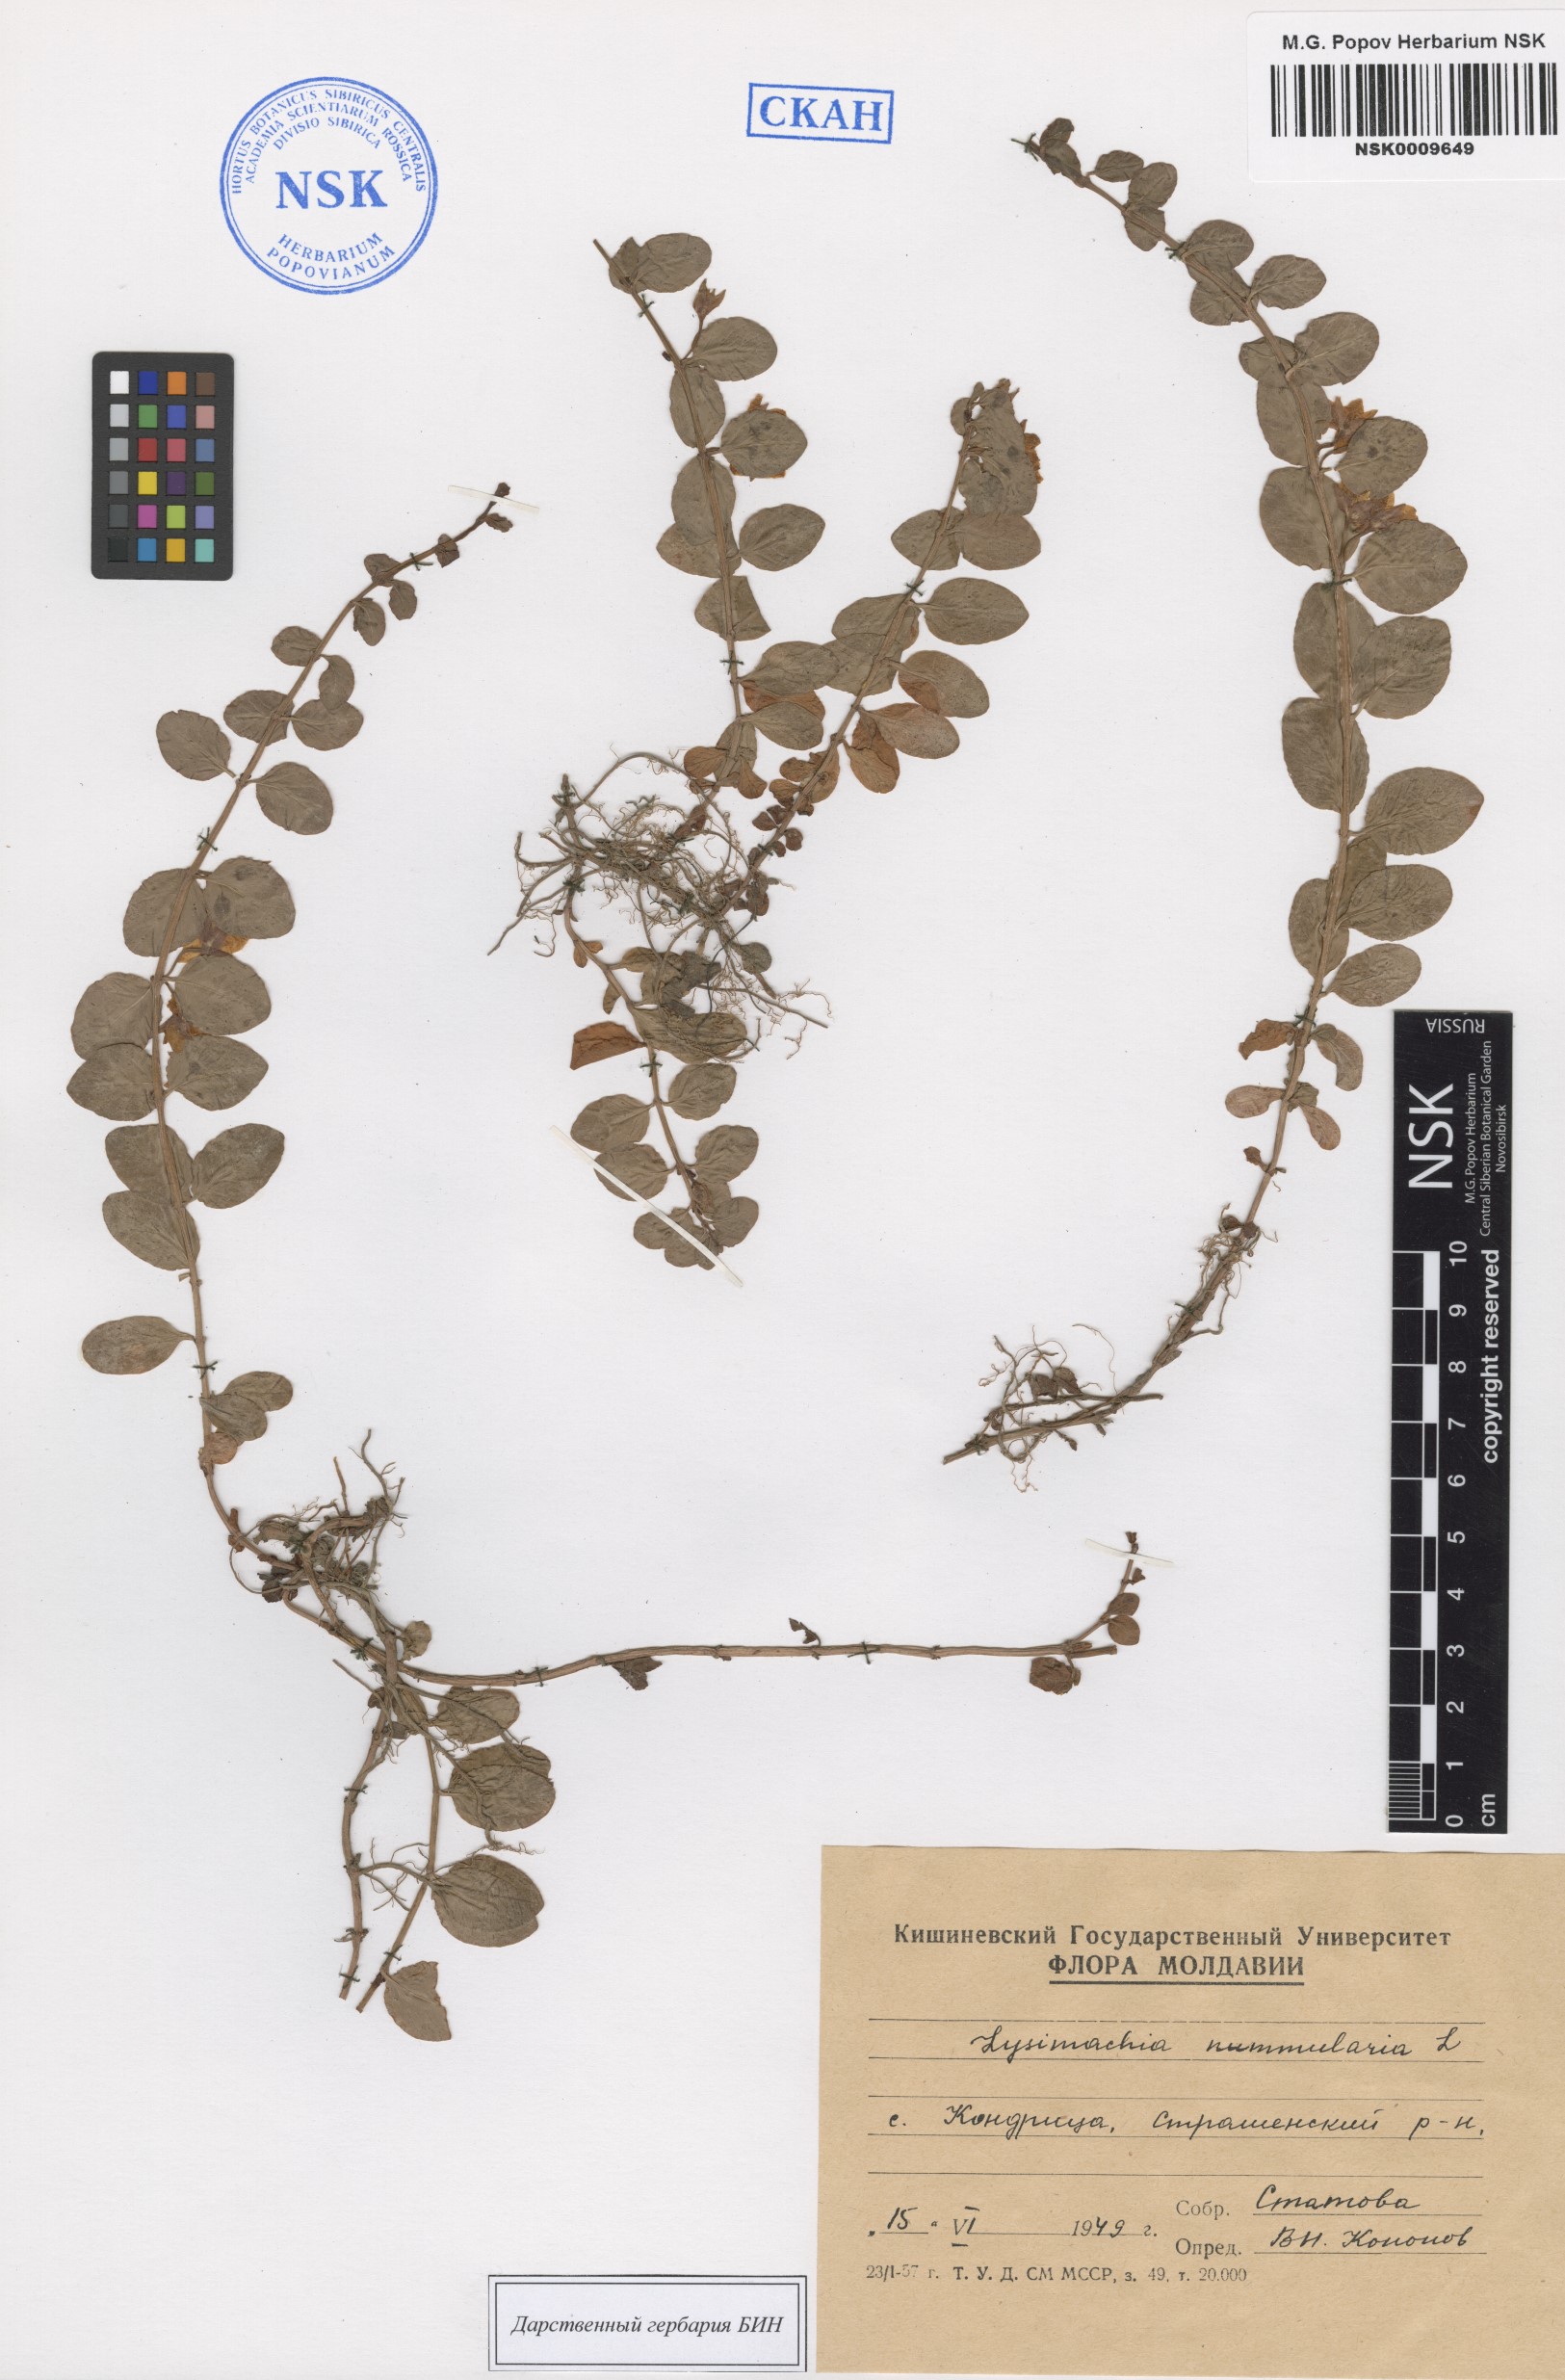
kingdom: Plantae
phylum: Tracheophyta
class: Magnoliopsida
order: Ericales
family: Primulaceae
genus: Lysimachia
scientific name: Lysimachia nummularia
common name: Moneywort
